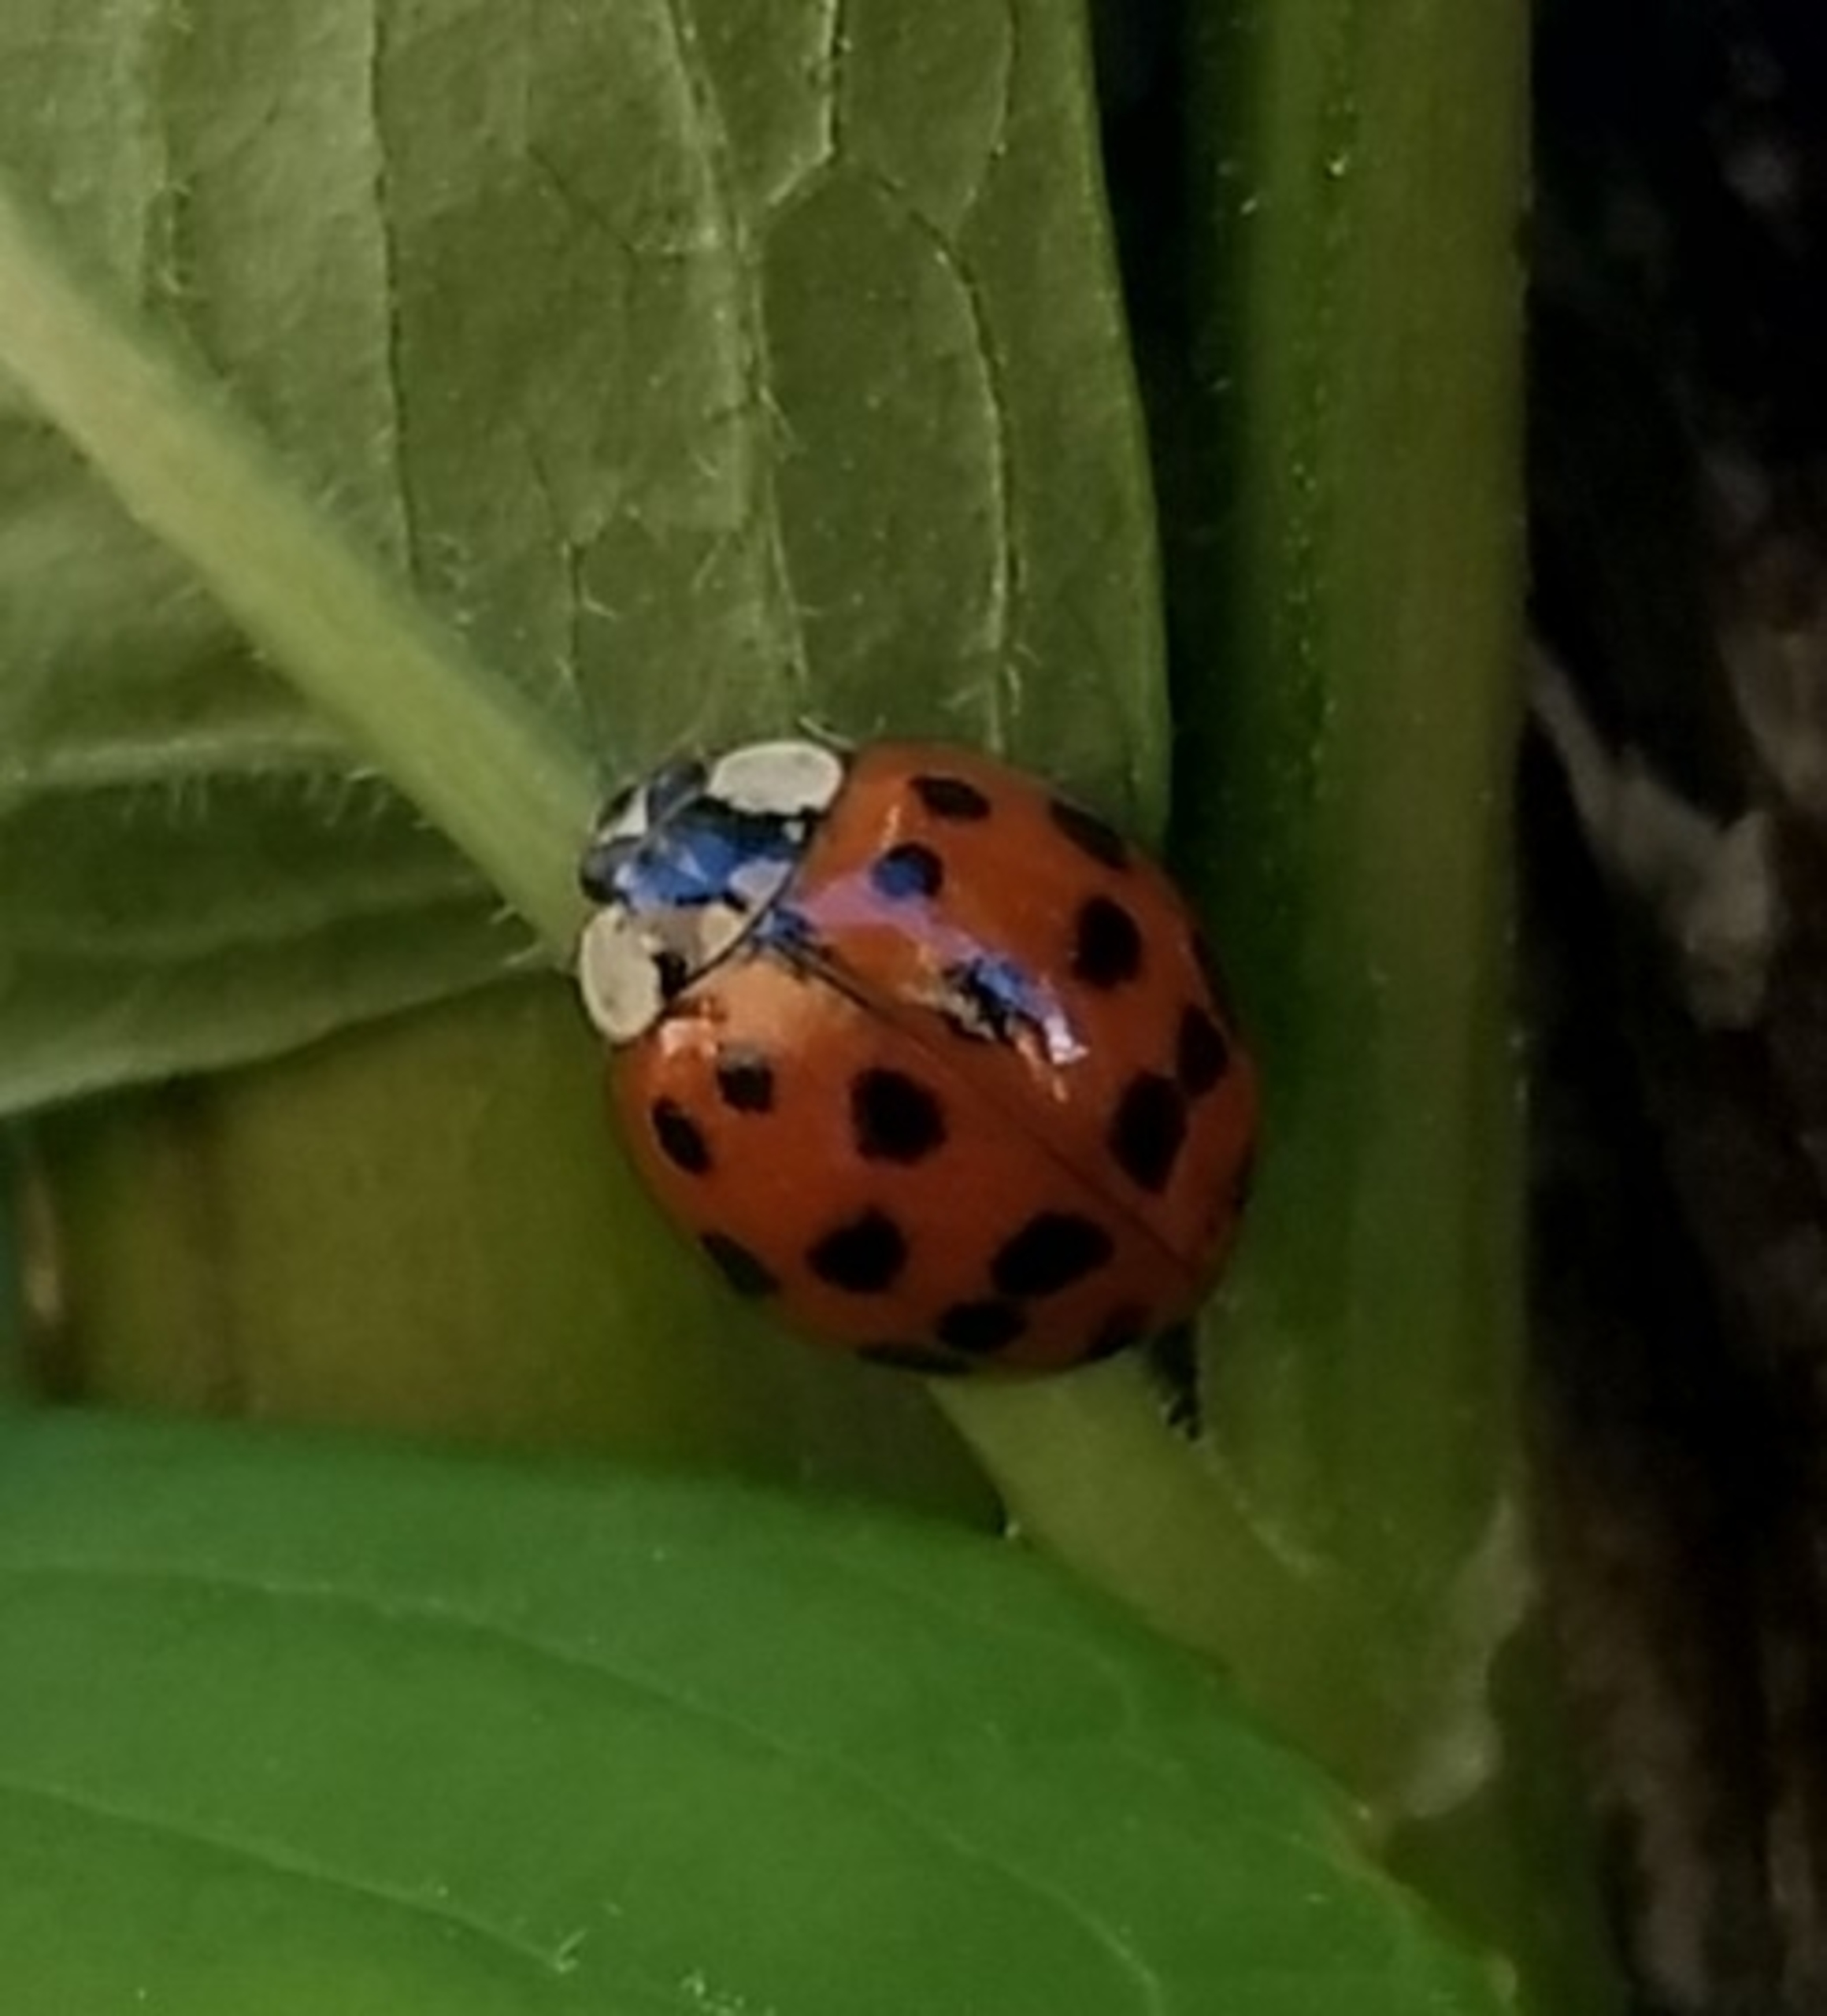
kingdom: Animalia
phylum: Arthropoda
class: Insecta
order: Coleoptera
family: Coccinellidae
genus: Harmonia
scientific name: Harmonia axyridis
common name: Harlekinmariehøne
